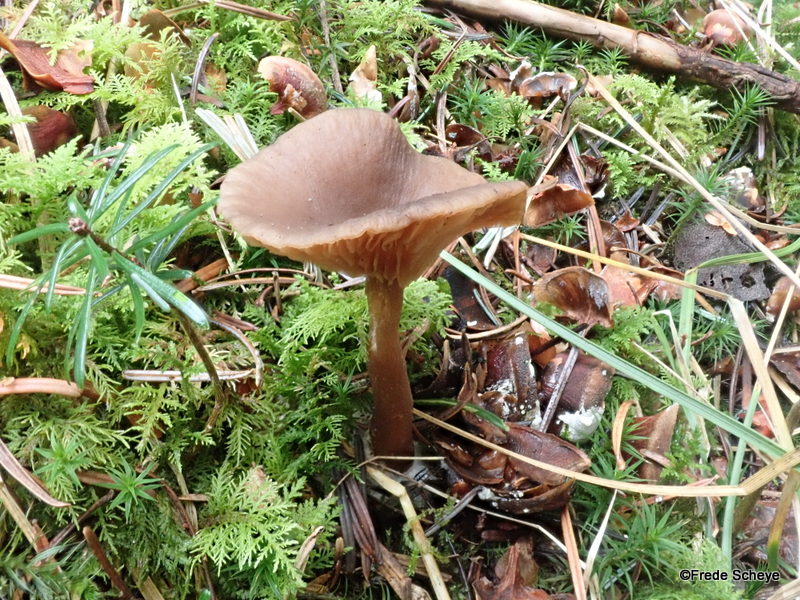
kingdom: Fungi
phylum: Basidiomycota
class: Agaricomycetes
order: Agaricales
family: Pseudoclitocybaceae
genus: Pseudoclitocybe
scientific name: Pseudoclitocybe cyathiformis
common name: almindelig bægertragthat
